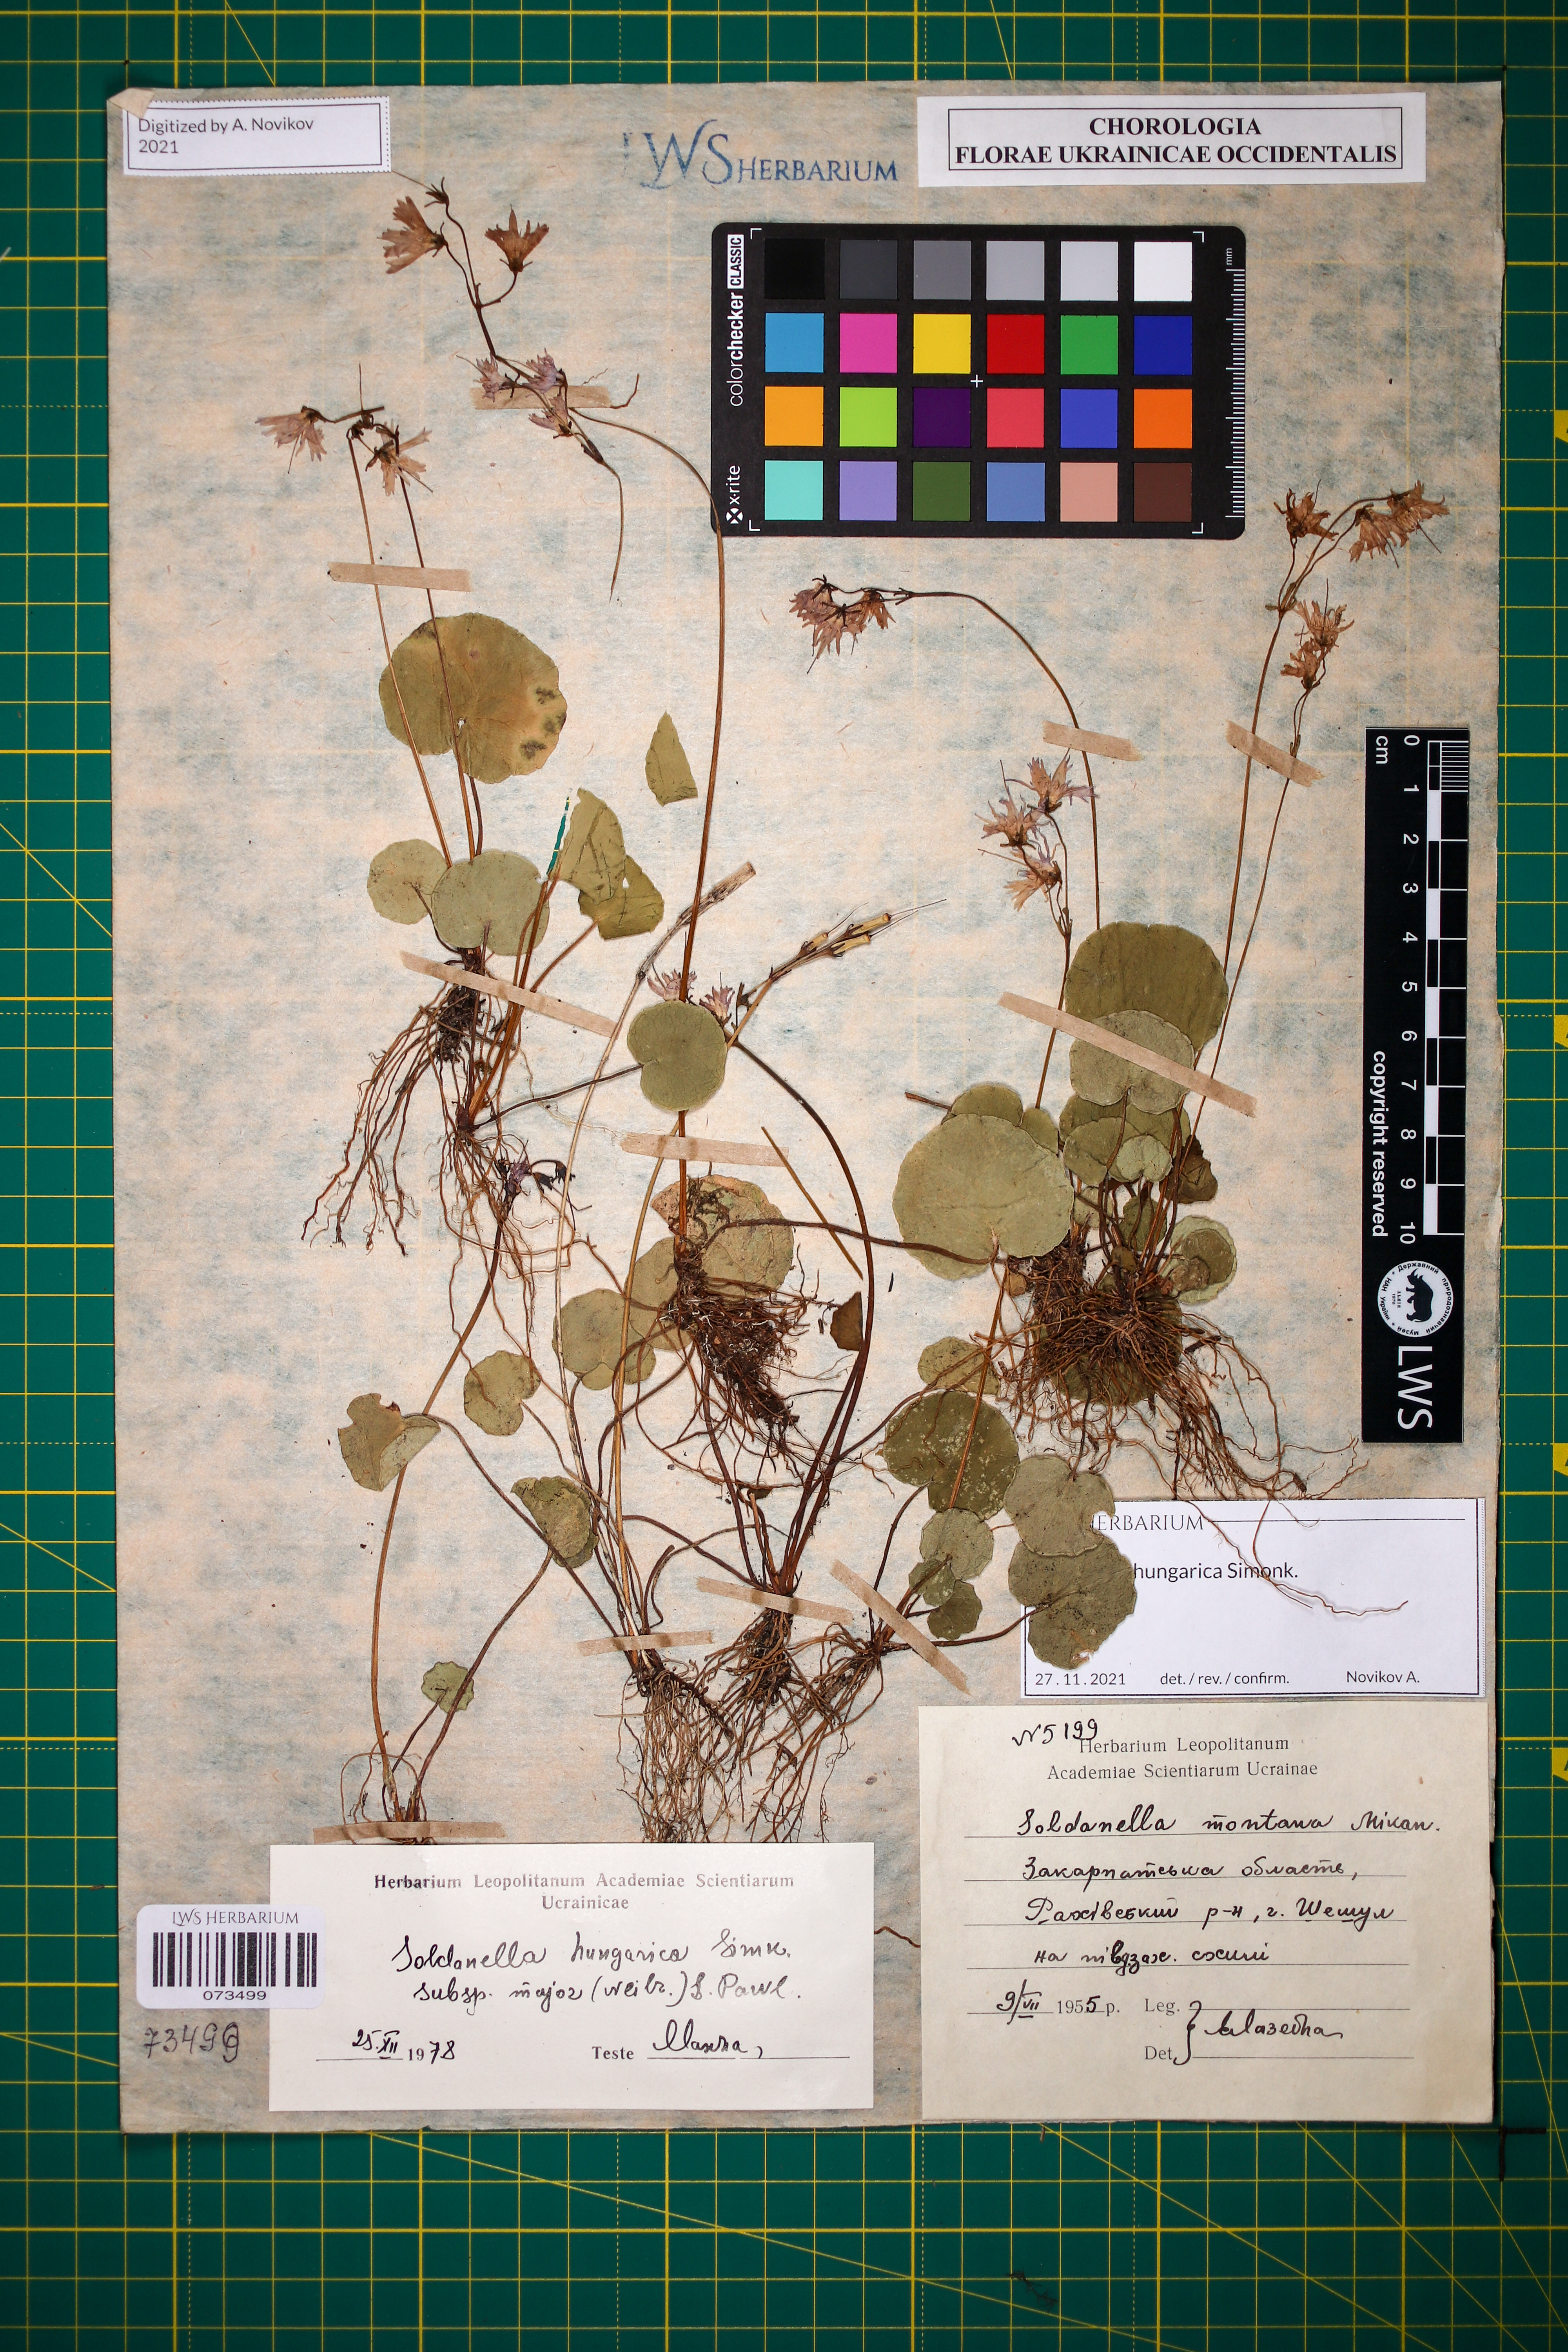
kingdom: Plantae
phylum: Tracheophyta
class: Magnoliopsida
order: Ericales
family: Primulaceae
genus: Soldanella
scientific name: Soldanella hungarica
